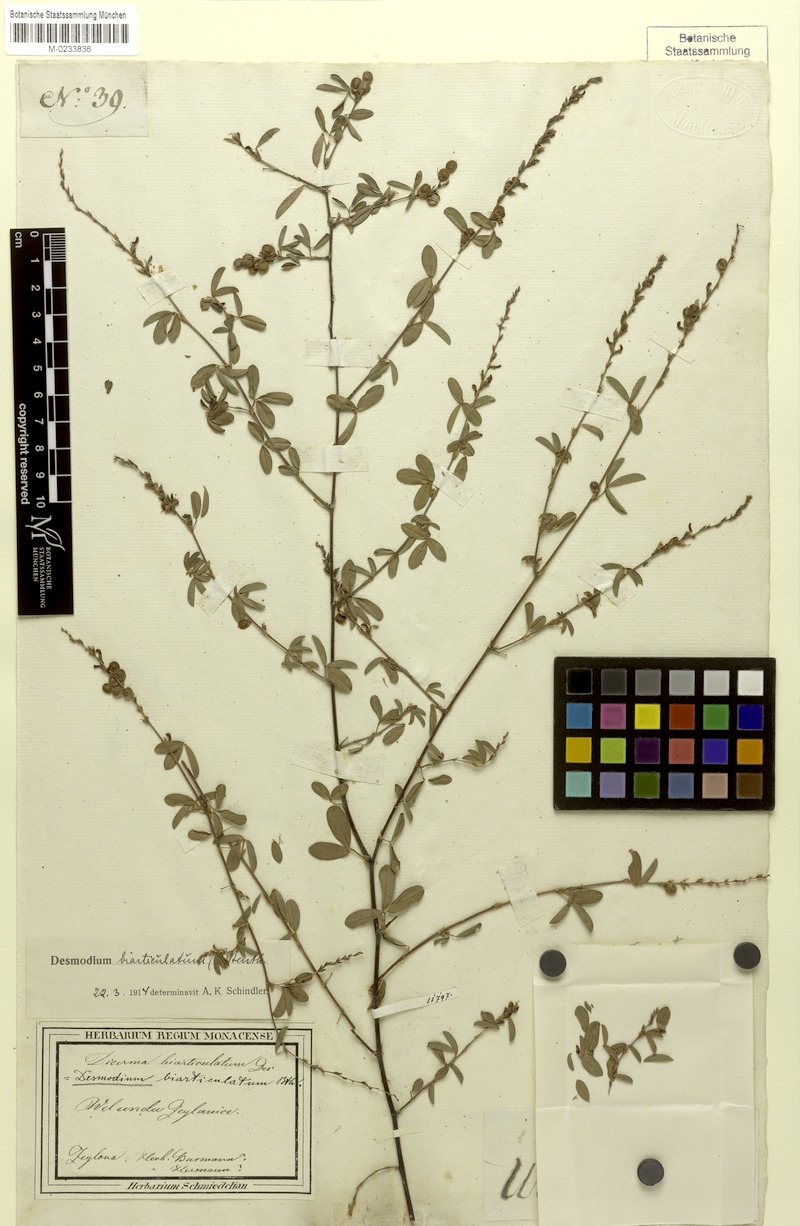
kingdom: Plantae
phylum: Tracheophyta
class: Magnoliopsida
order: Fabales
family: Fabaceae
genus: Aphyllodium
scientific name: Aphyllodium biarticulatum
